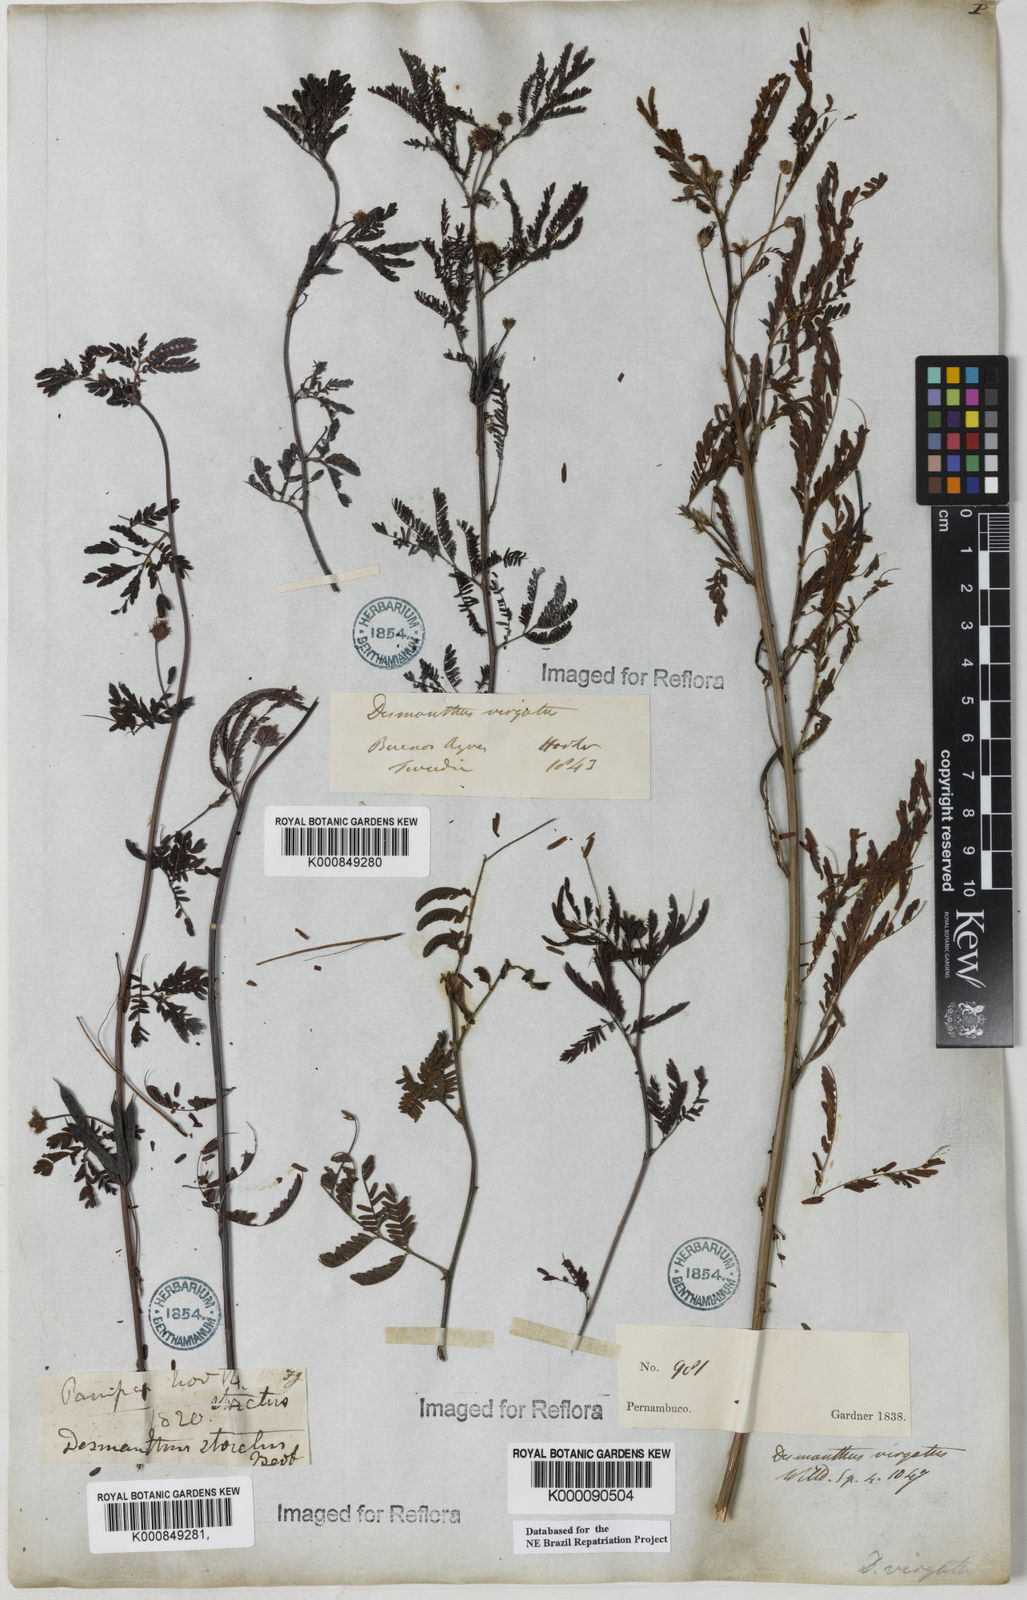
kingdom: Plantae
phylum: Tracheophyta
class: Magnoliopsida
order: Fabales
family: Fabaceae
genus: Desmanthus
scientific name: Desmanthus virgatus
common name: Wild tantan
